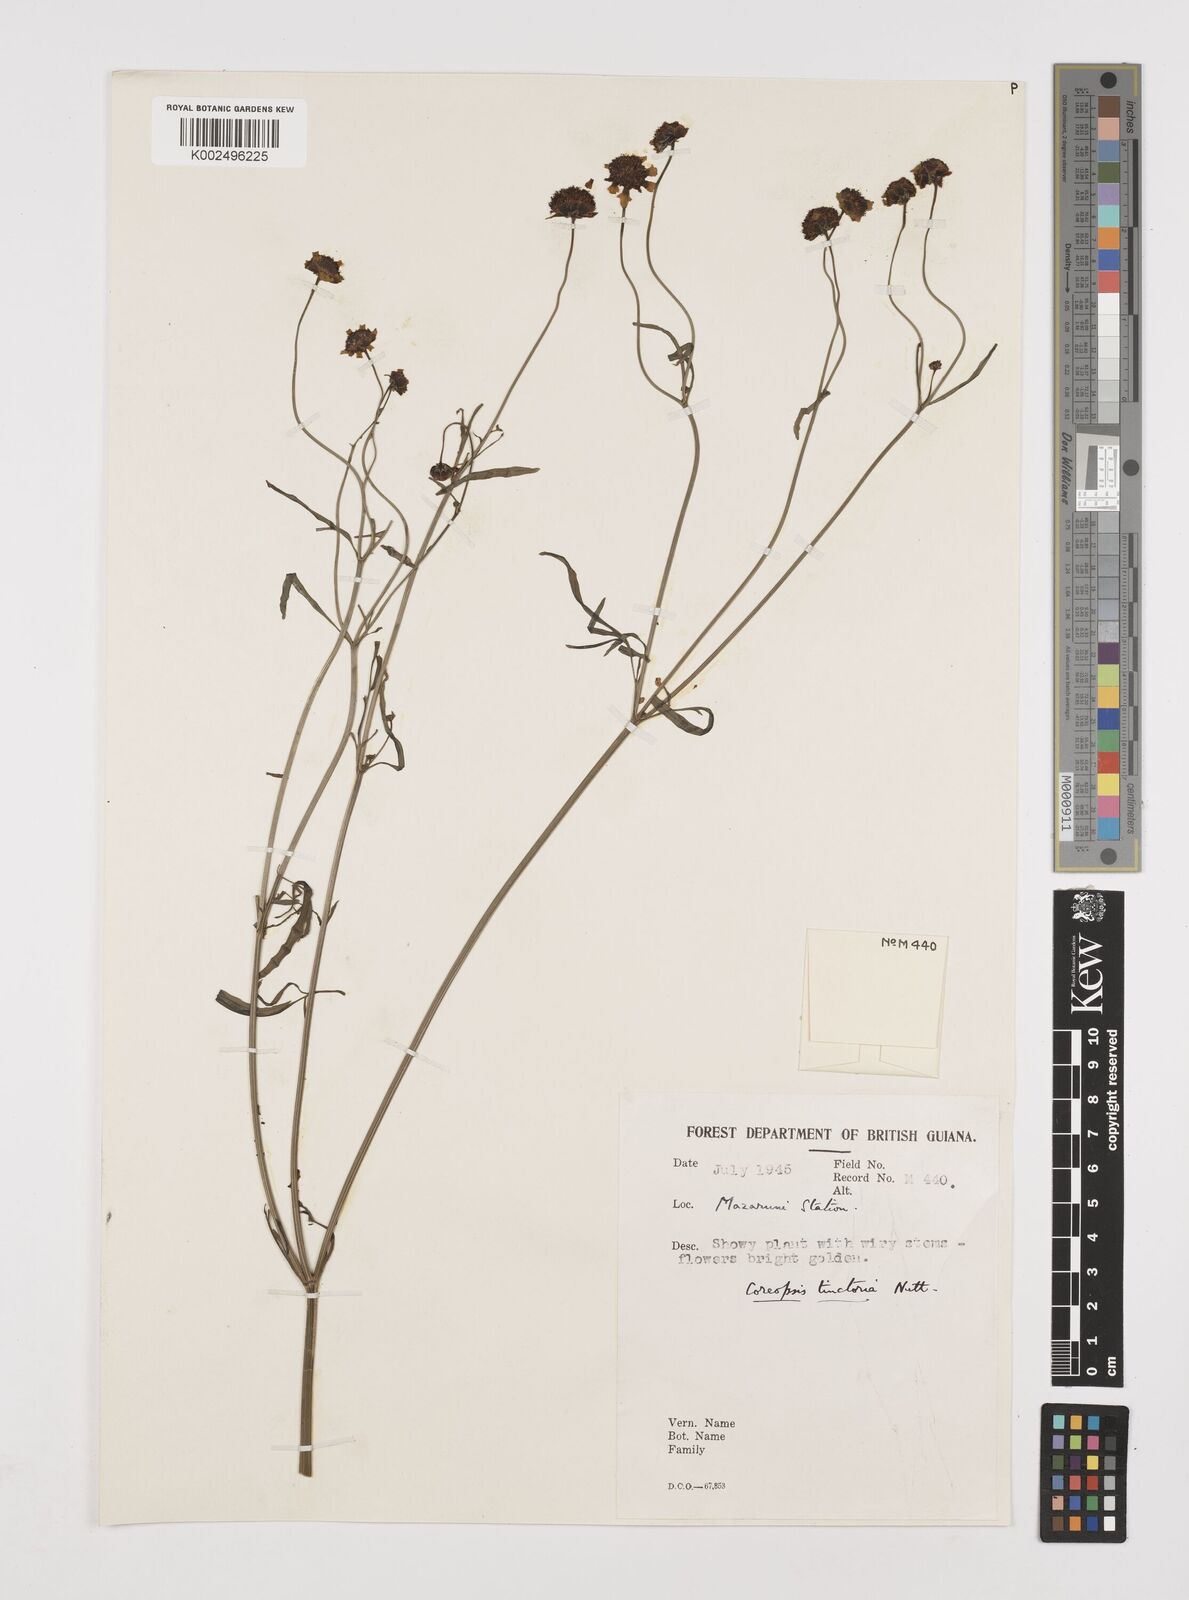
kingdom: Plantae
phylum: Tracheophyta
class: Magnoliopsida
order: Asterales
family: Asteraceae
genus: Coreopsis
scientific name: Coreopsis tinctoria
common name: Garden tickseed
